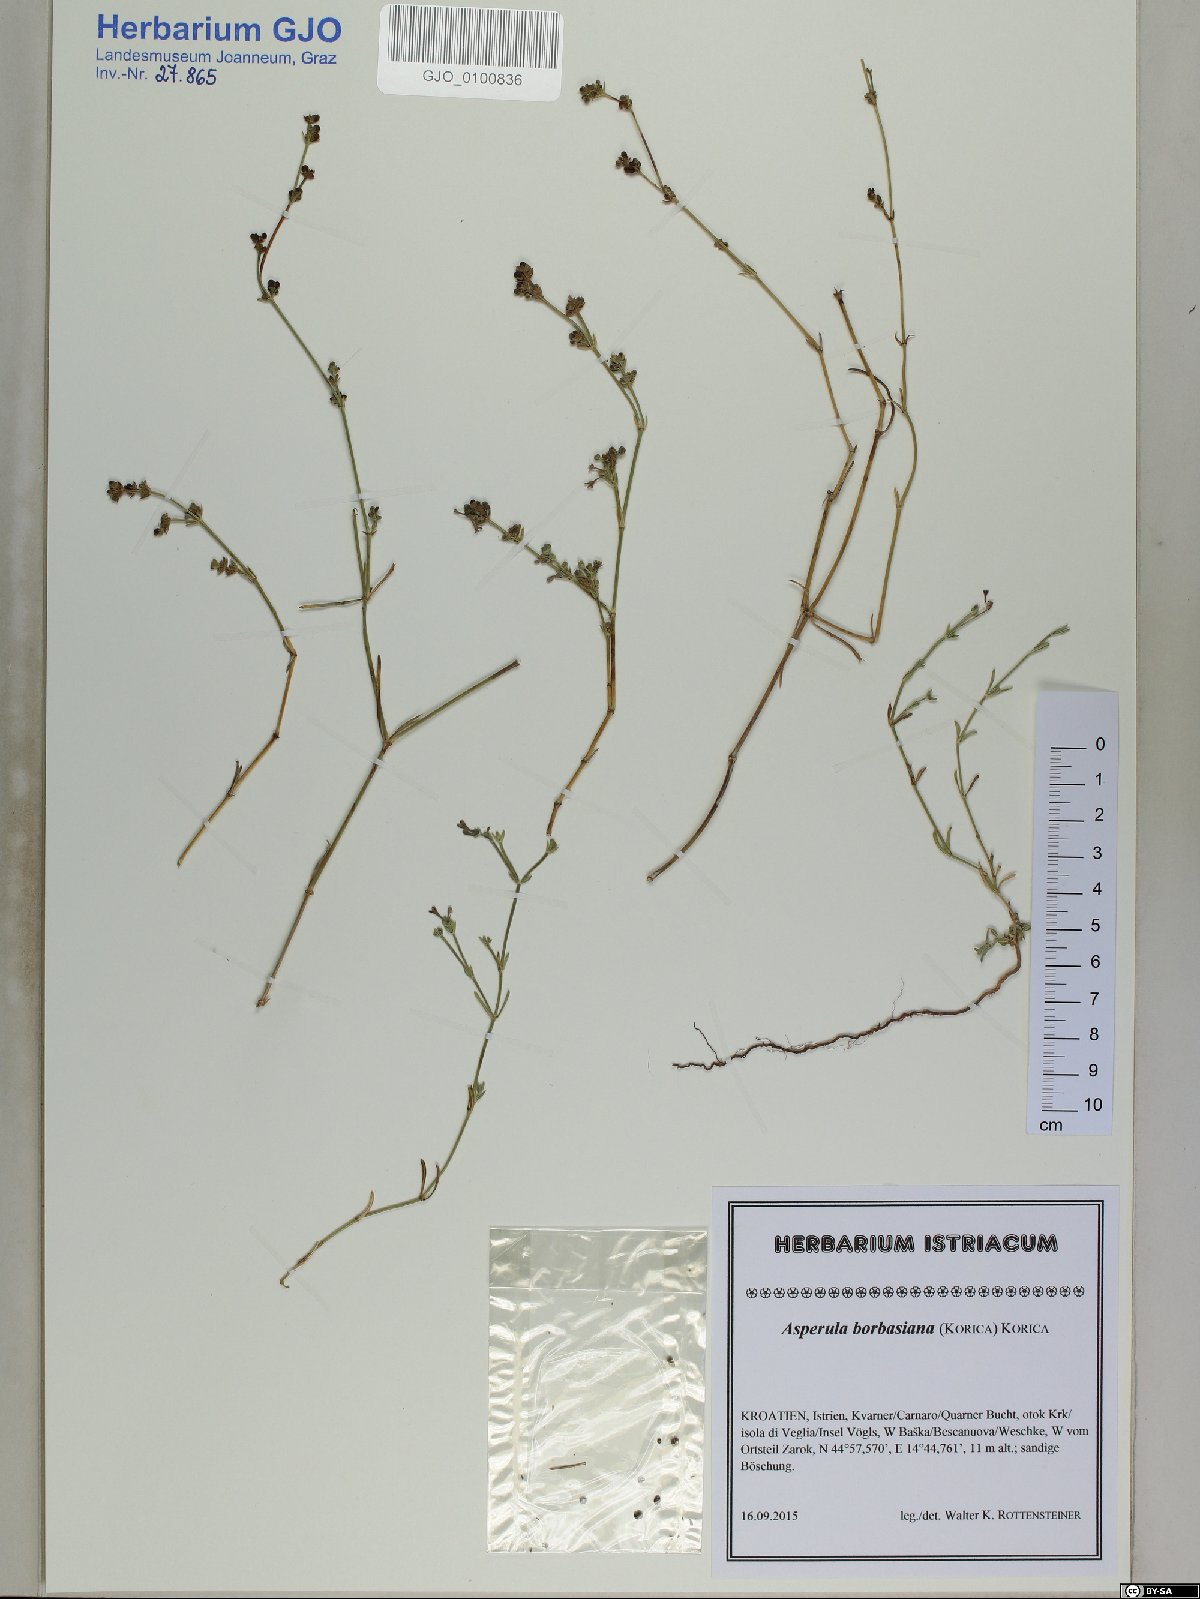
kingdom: Plantae
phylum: Tracheophyta
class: Magnoliopsida
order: Gentianales
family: Rubiaceae
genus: Cynanchica
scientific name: Cynanchica borbasiana
